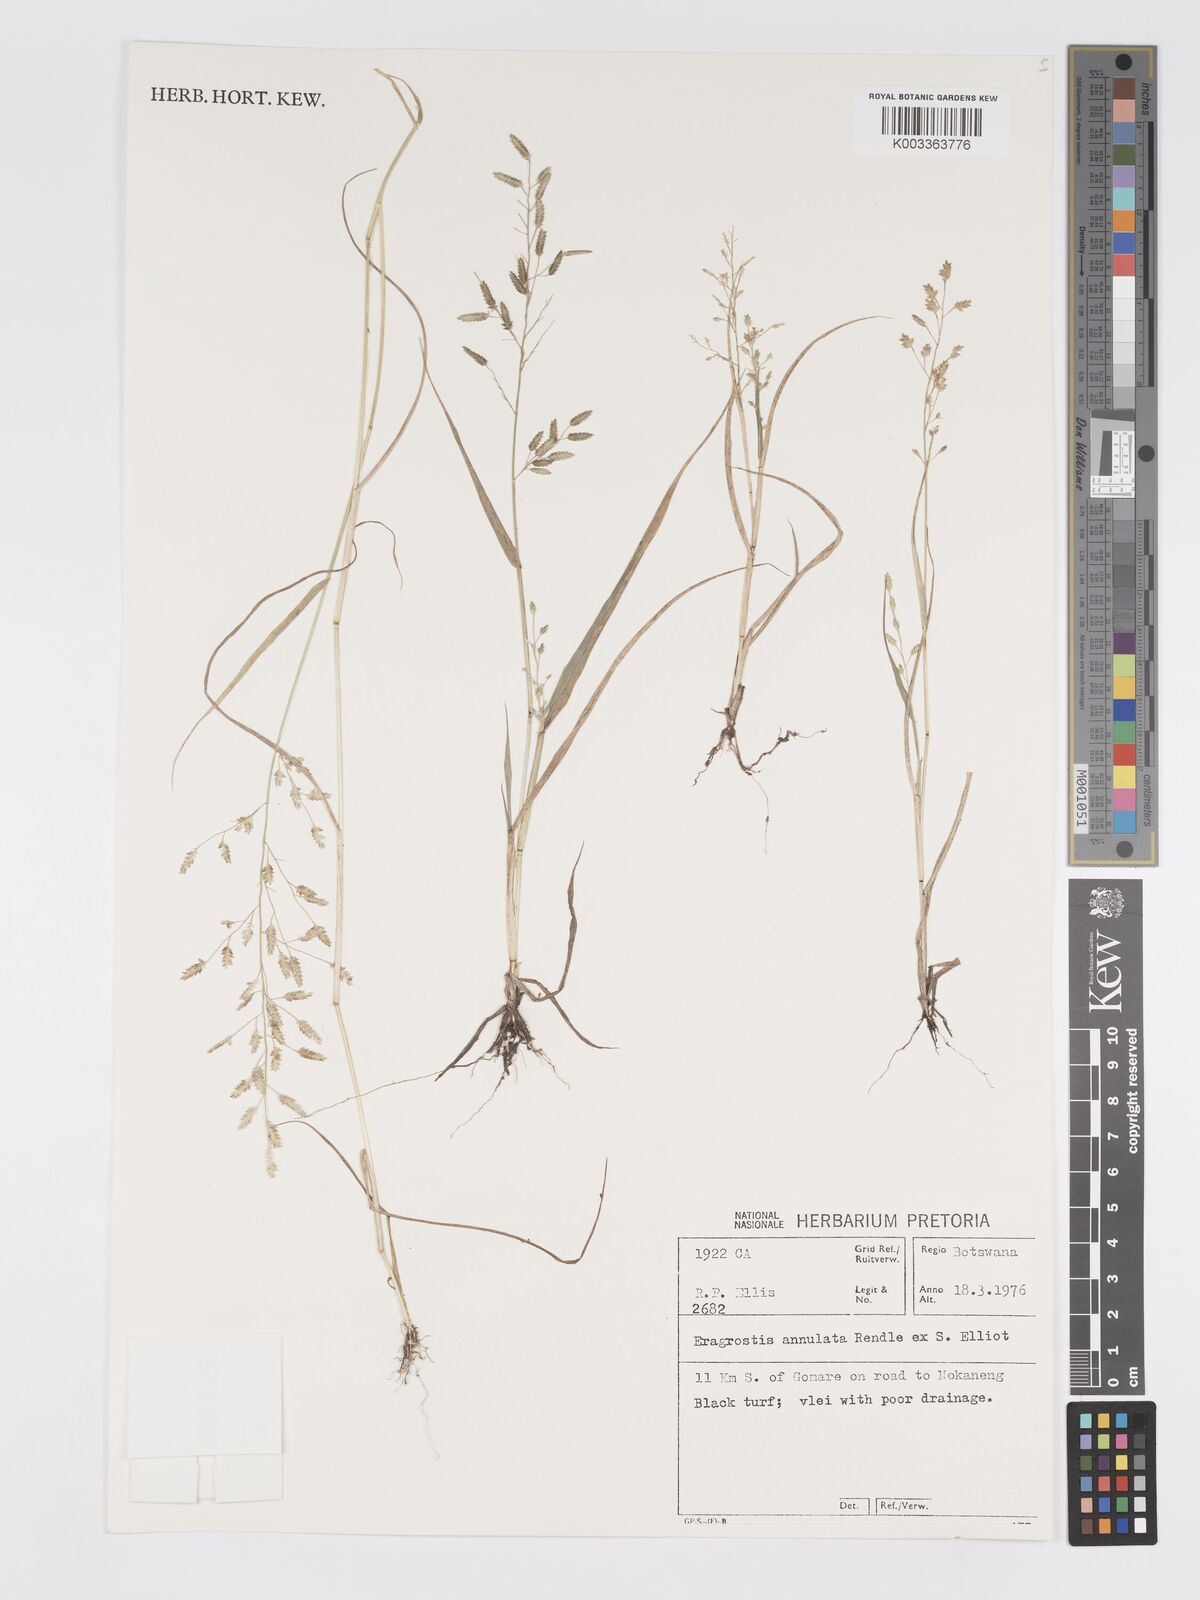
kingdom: Plantae
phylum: Tracheophyta
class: Liliopsida
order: Poales
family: Poaceae
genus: Eragrostis
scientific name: Eragrostis cilianensis
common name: Stinkgrass
